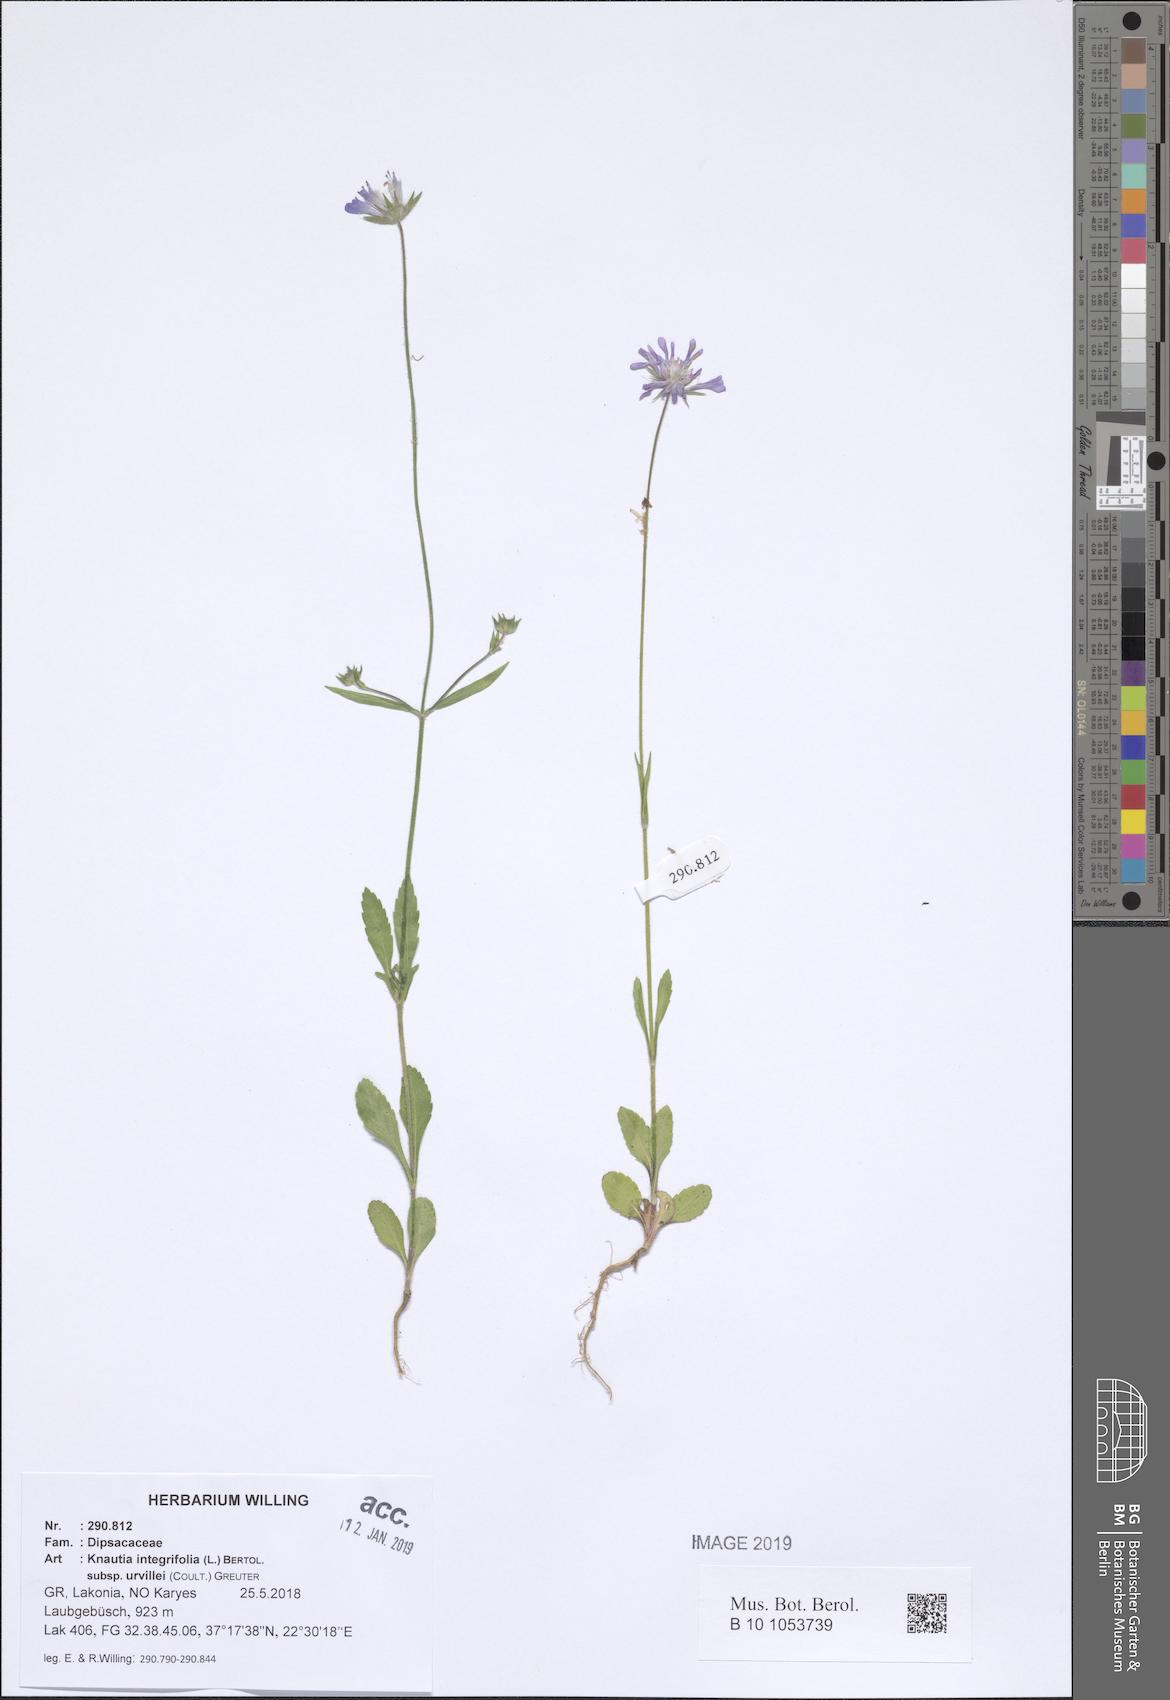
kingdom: Plantae
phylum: Tracheophyta
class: Magnoliopsida
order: Dipsacales
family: Caprifoliaceae
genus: Knautia
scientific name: Knautia integrifolia
